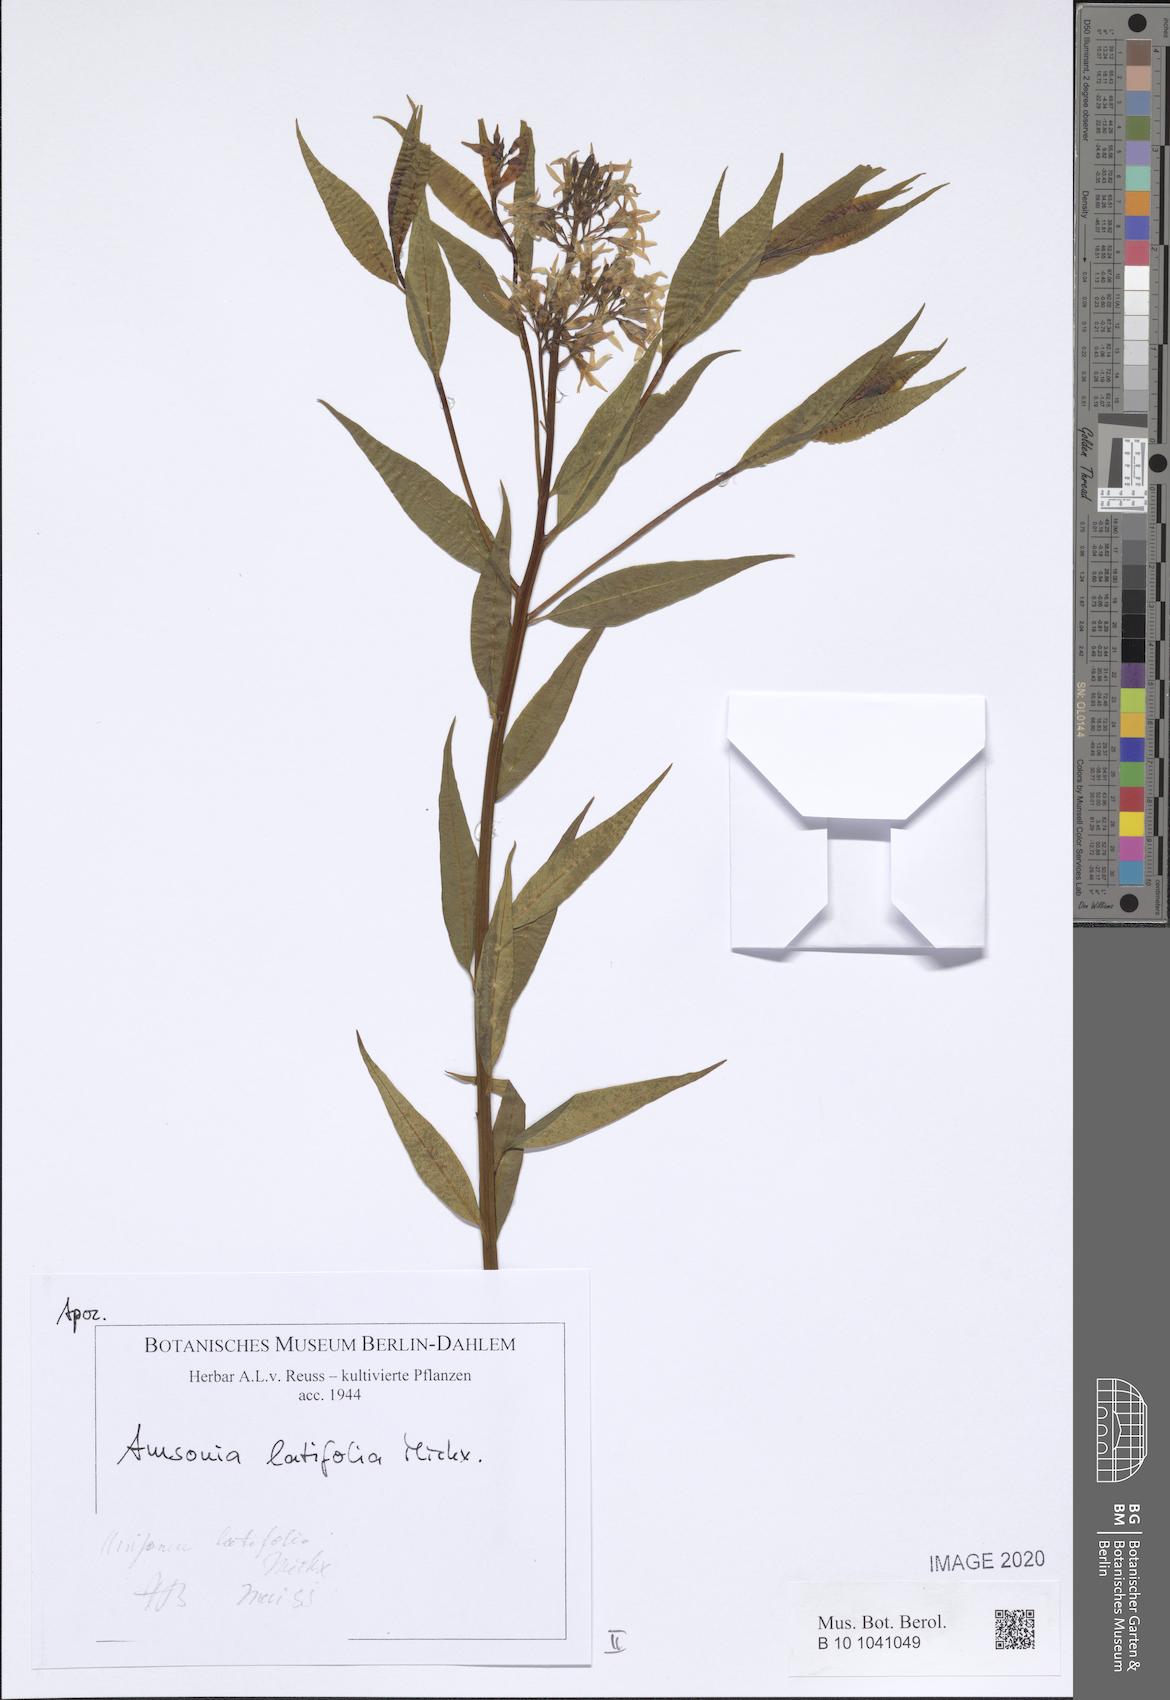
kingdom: Plantae
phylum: Tracheophyta
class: Magnoliopsida
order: Gentianales
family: Apocynaceae
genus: Amsonia
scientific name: Amsonia tabernaemontana
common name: Texas-star
